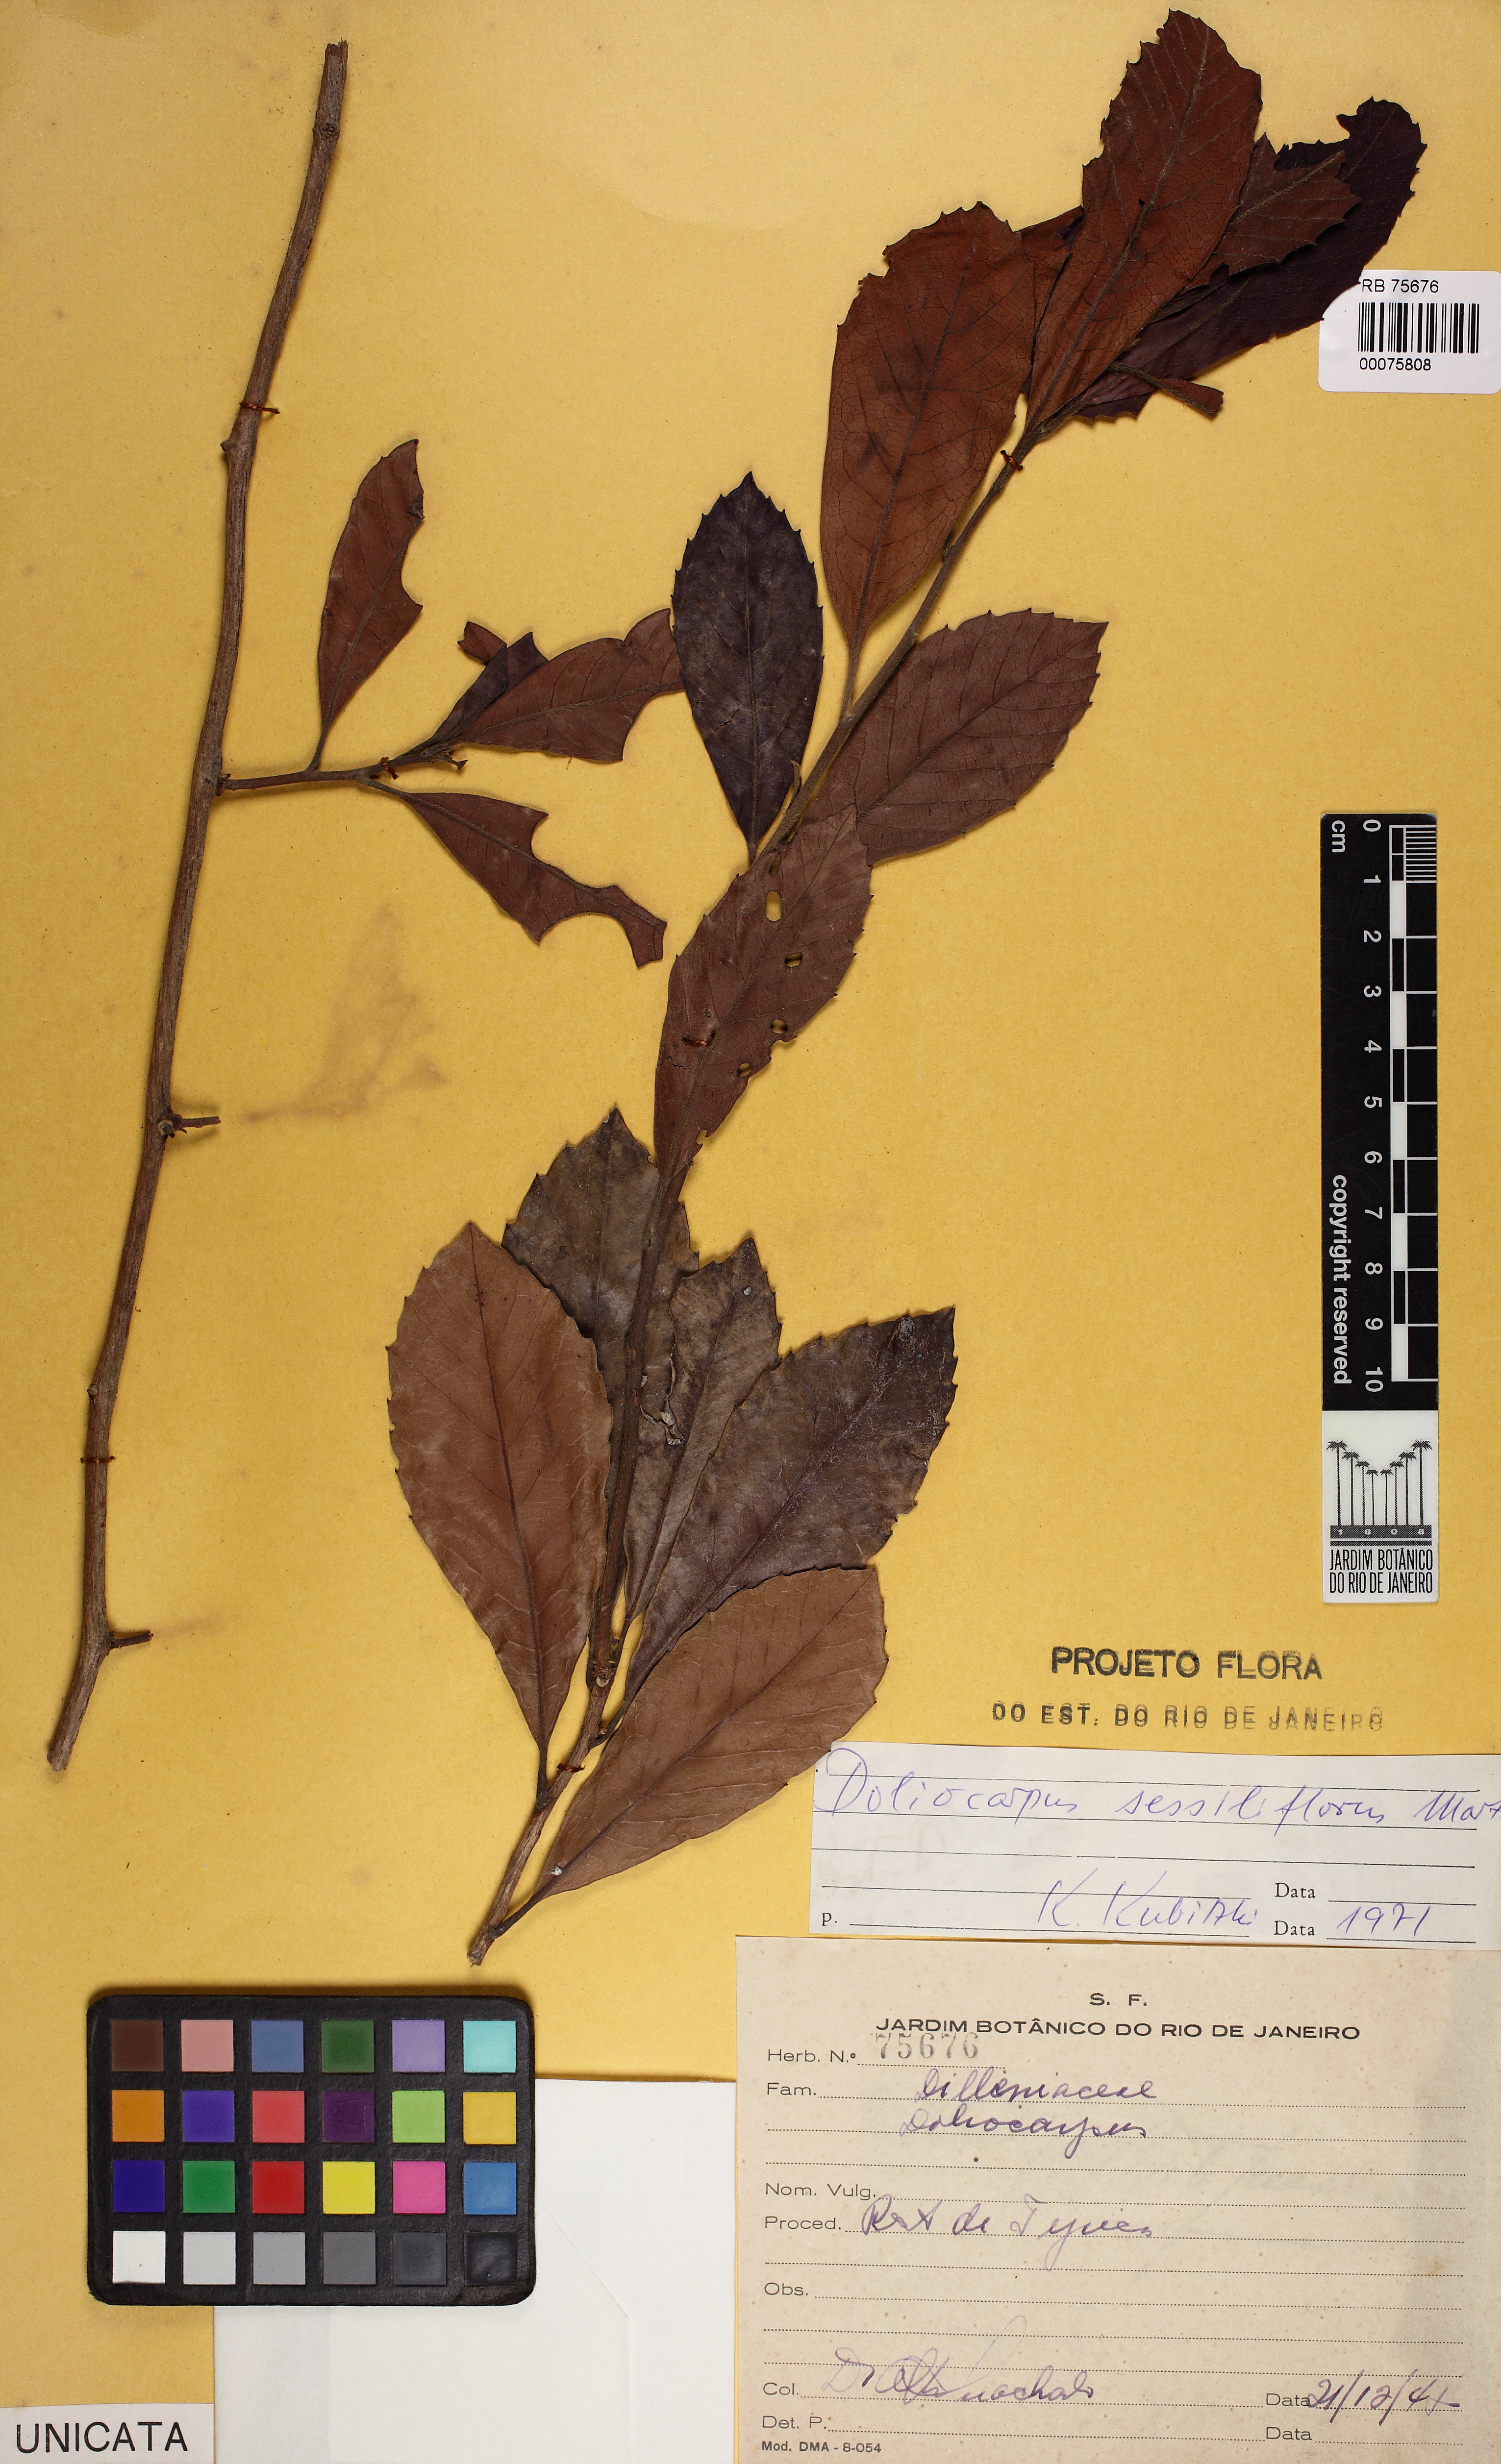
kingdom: Plantae
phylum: Tracheophyta
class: Magnoliopsida
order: Dilleniales
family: Dilleniaceae
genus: Doliocarpus
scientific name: Doliocarpus sessiliflorus
